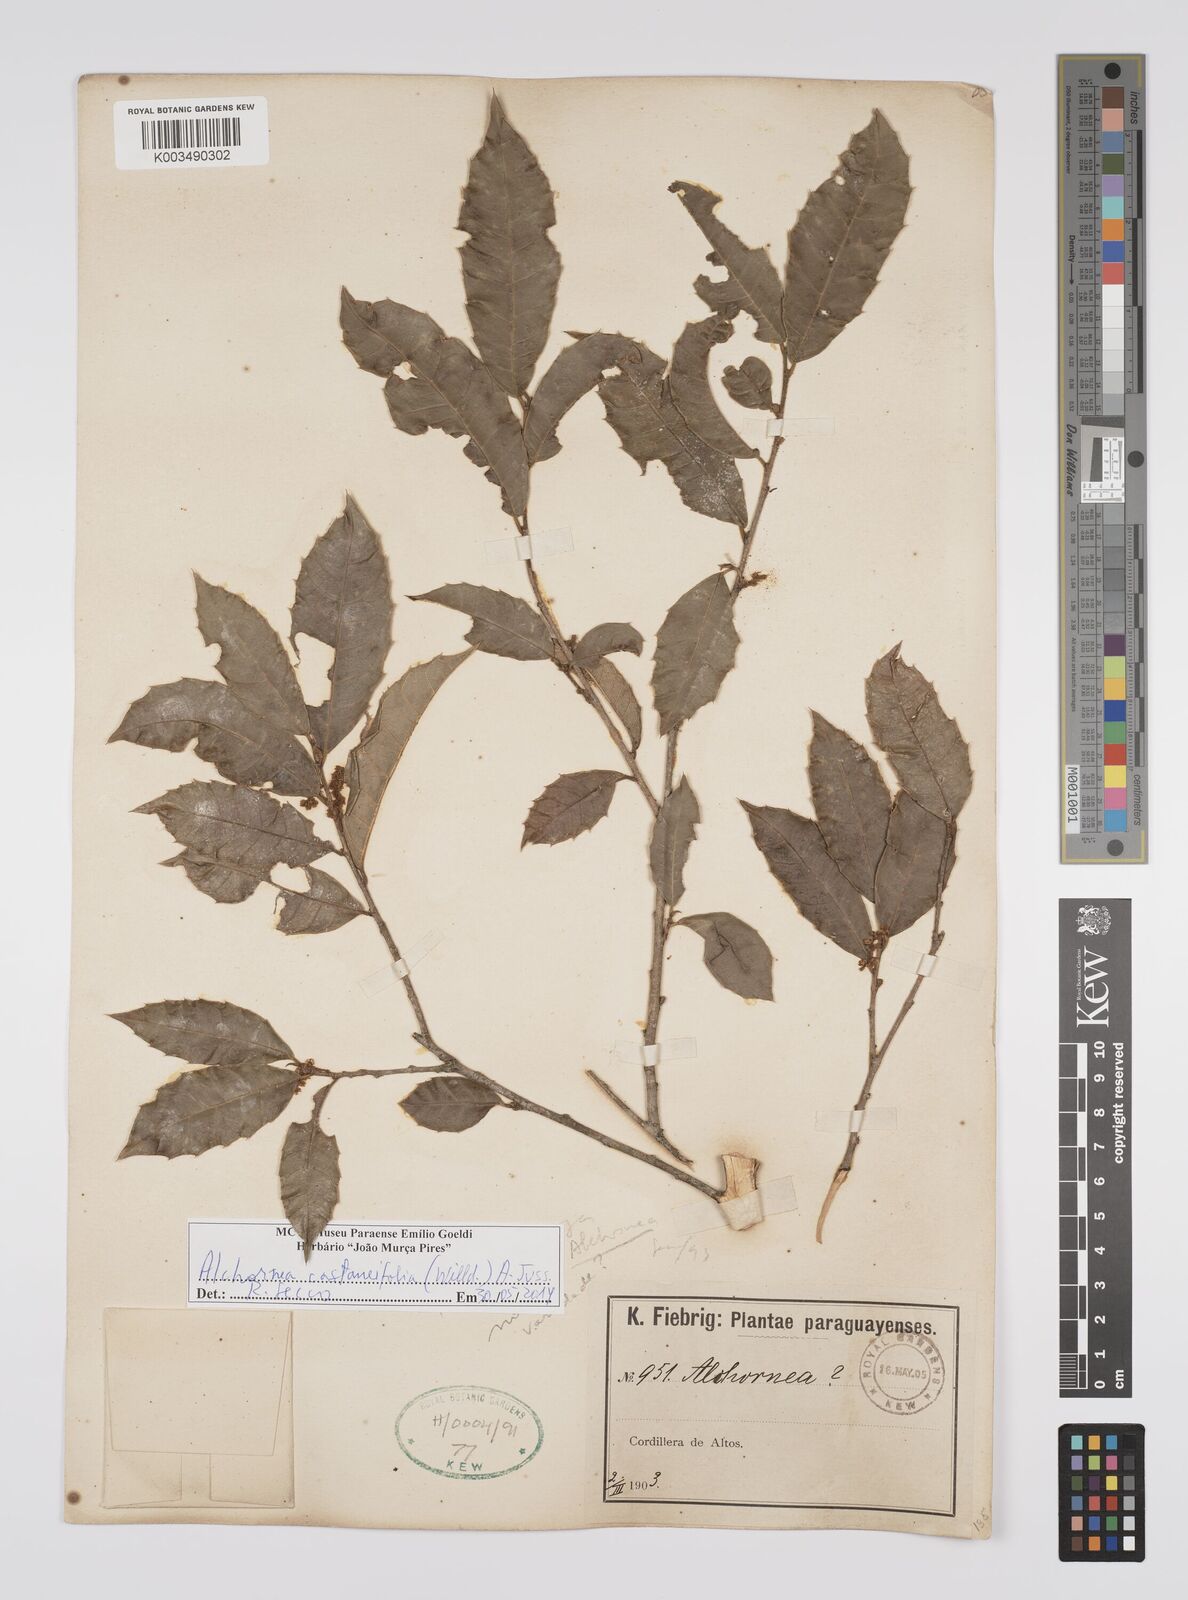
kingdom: Plantae
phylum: Tracheophyta
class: Magnoliopsida
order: Malpighiales
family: Euphorbiaceae
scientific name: Euphorbiaceae
